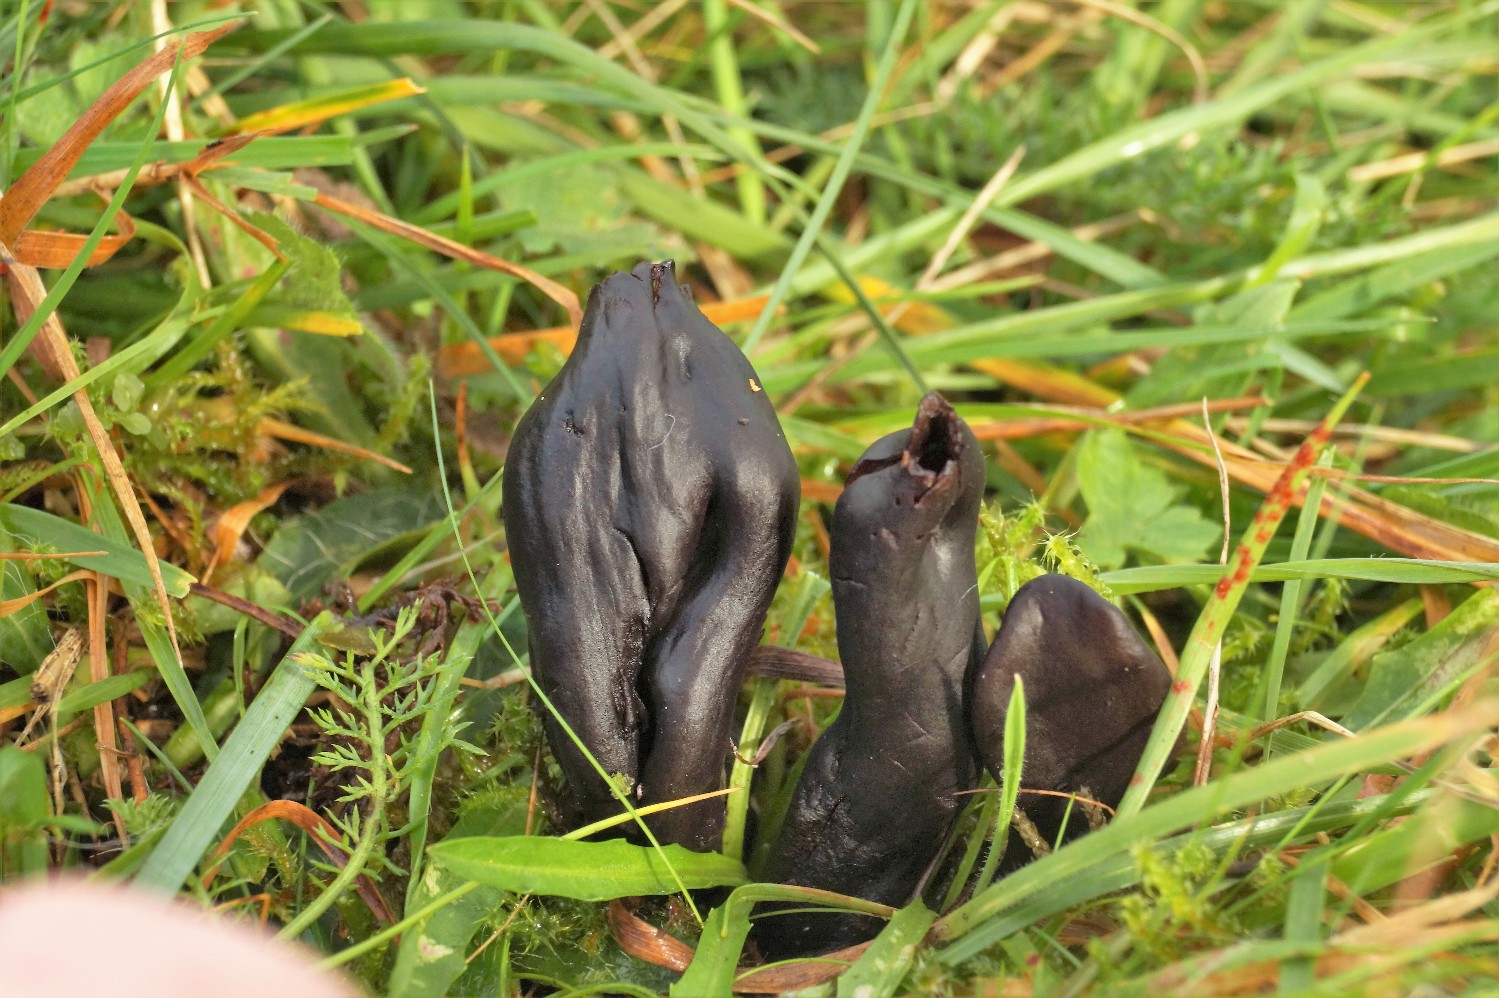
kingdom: Fungi
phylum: Ascomycota
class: Geoglossomycetes
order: Geoglossales
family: Geoglossaceae
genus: Geoglossum
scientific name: Geoglossum
